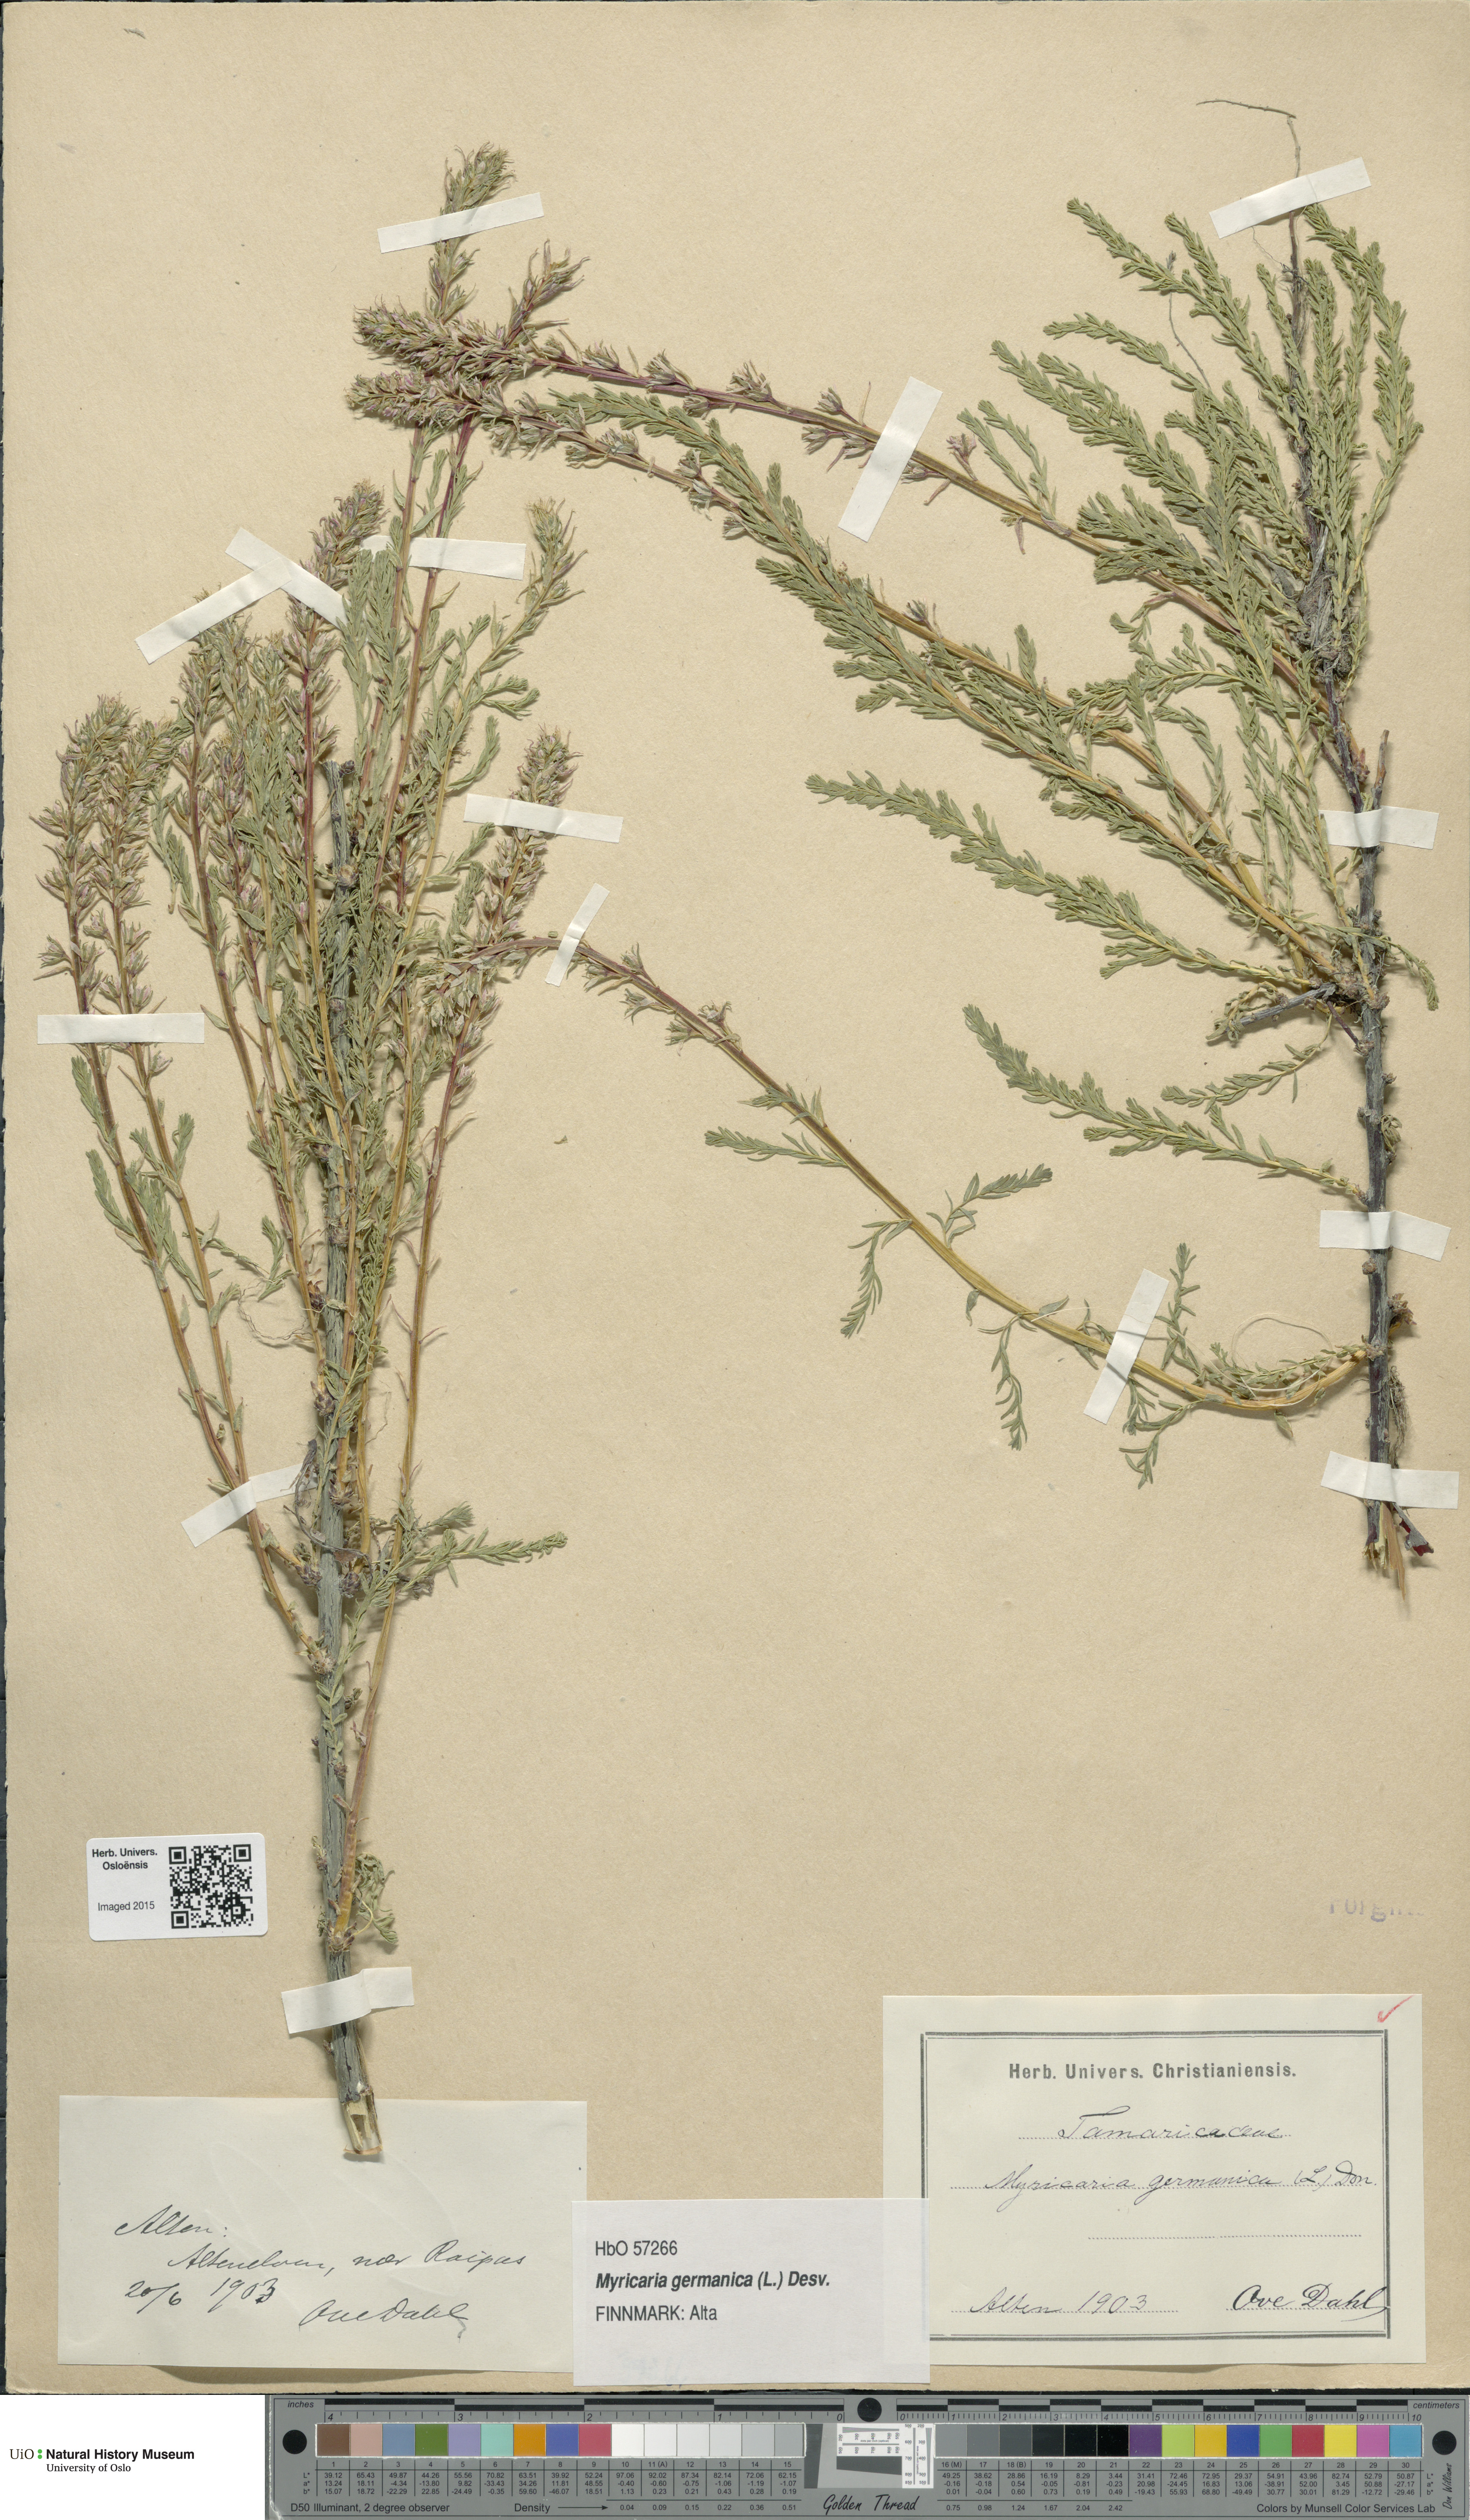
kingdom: Plantae
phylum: Tracheophyta
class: Magnoliopsida
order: Caryophyllales
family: Tamaricaceae
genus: Myricaria
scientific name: Myricaria germanica
